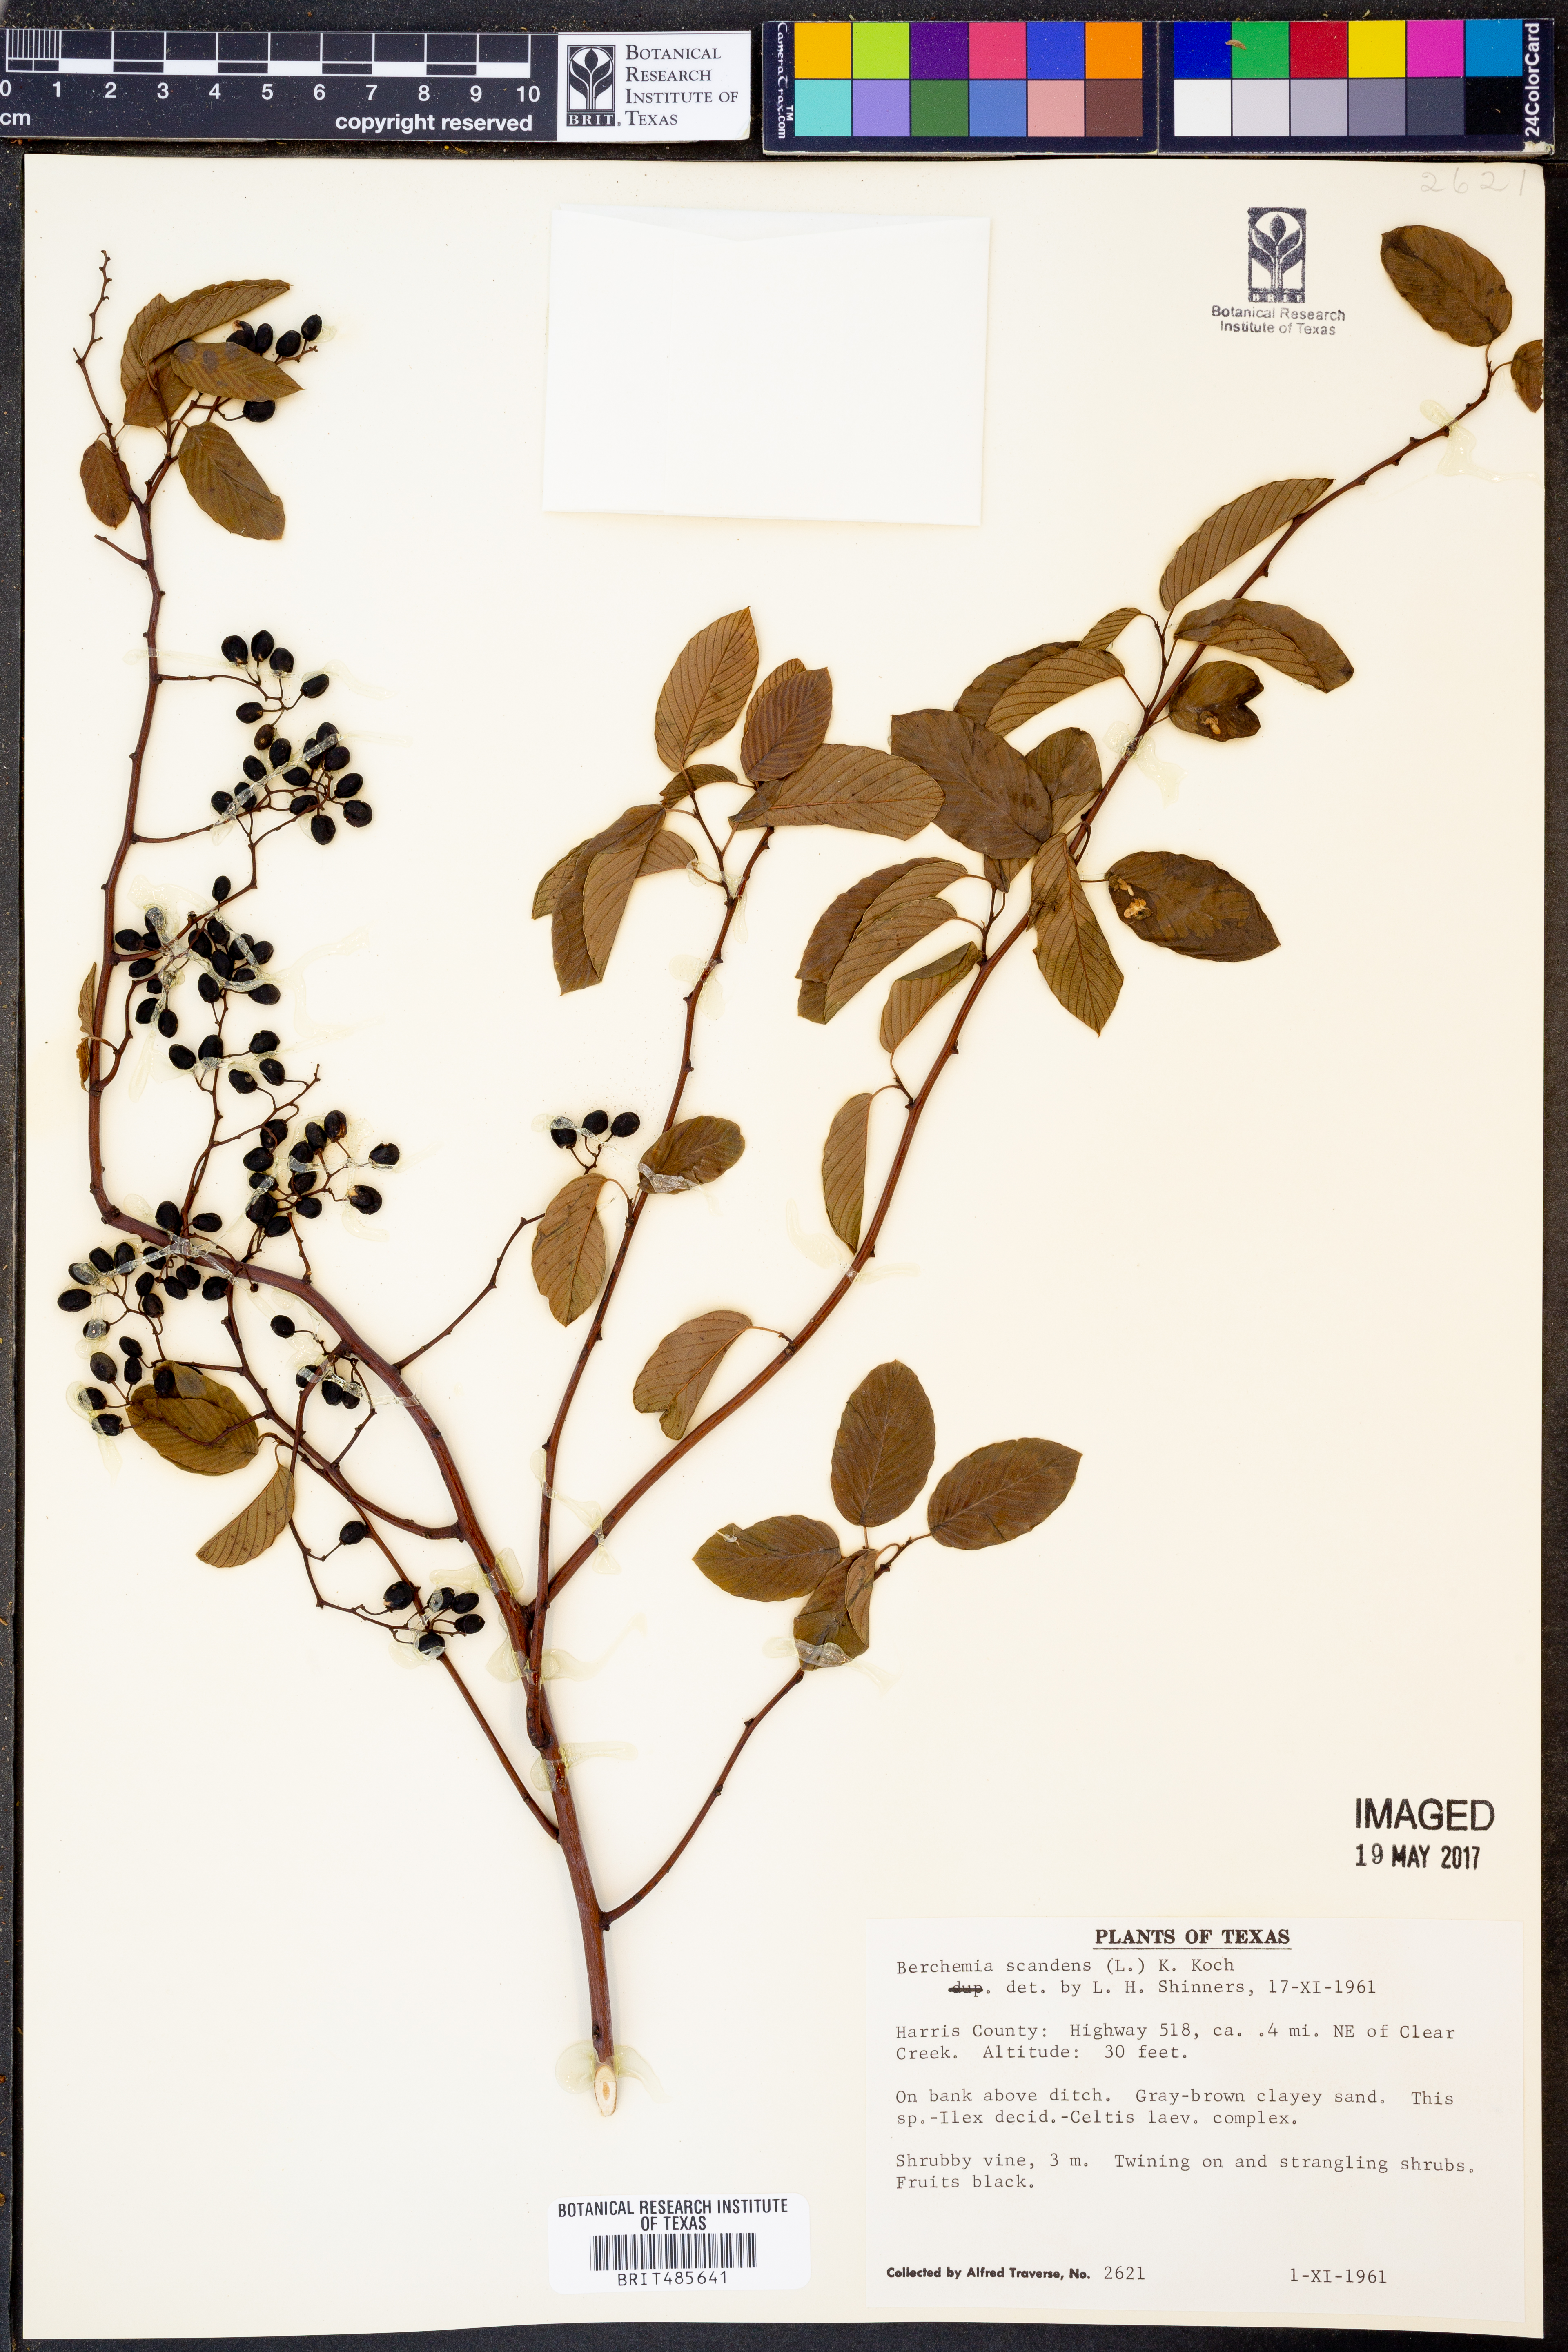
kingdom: Plantae
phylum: Tracheophyta
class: Magnoliopsida
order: Rosales
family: Rhamnaceae
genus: Berchemia
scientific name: Berchemia scandens
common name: Supplejack
